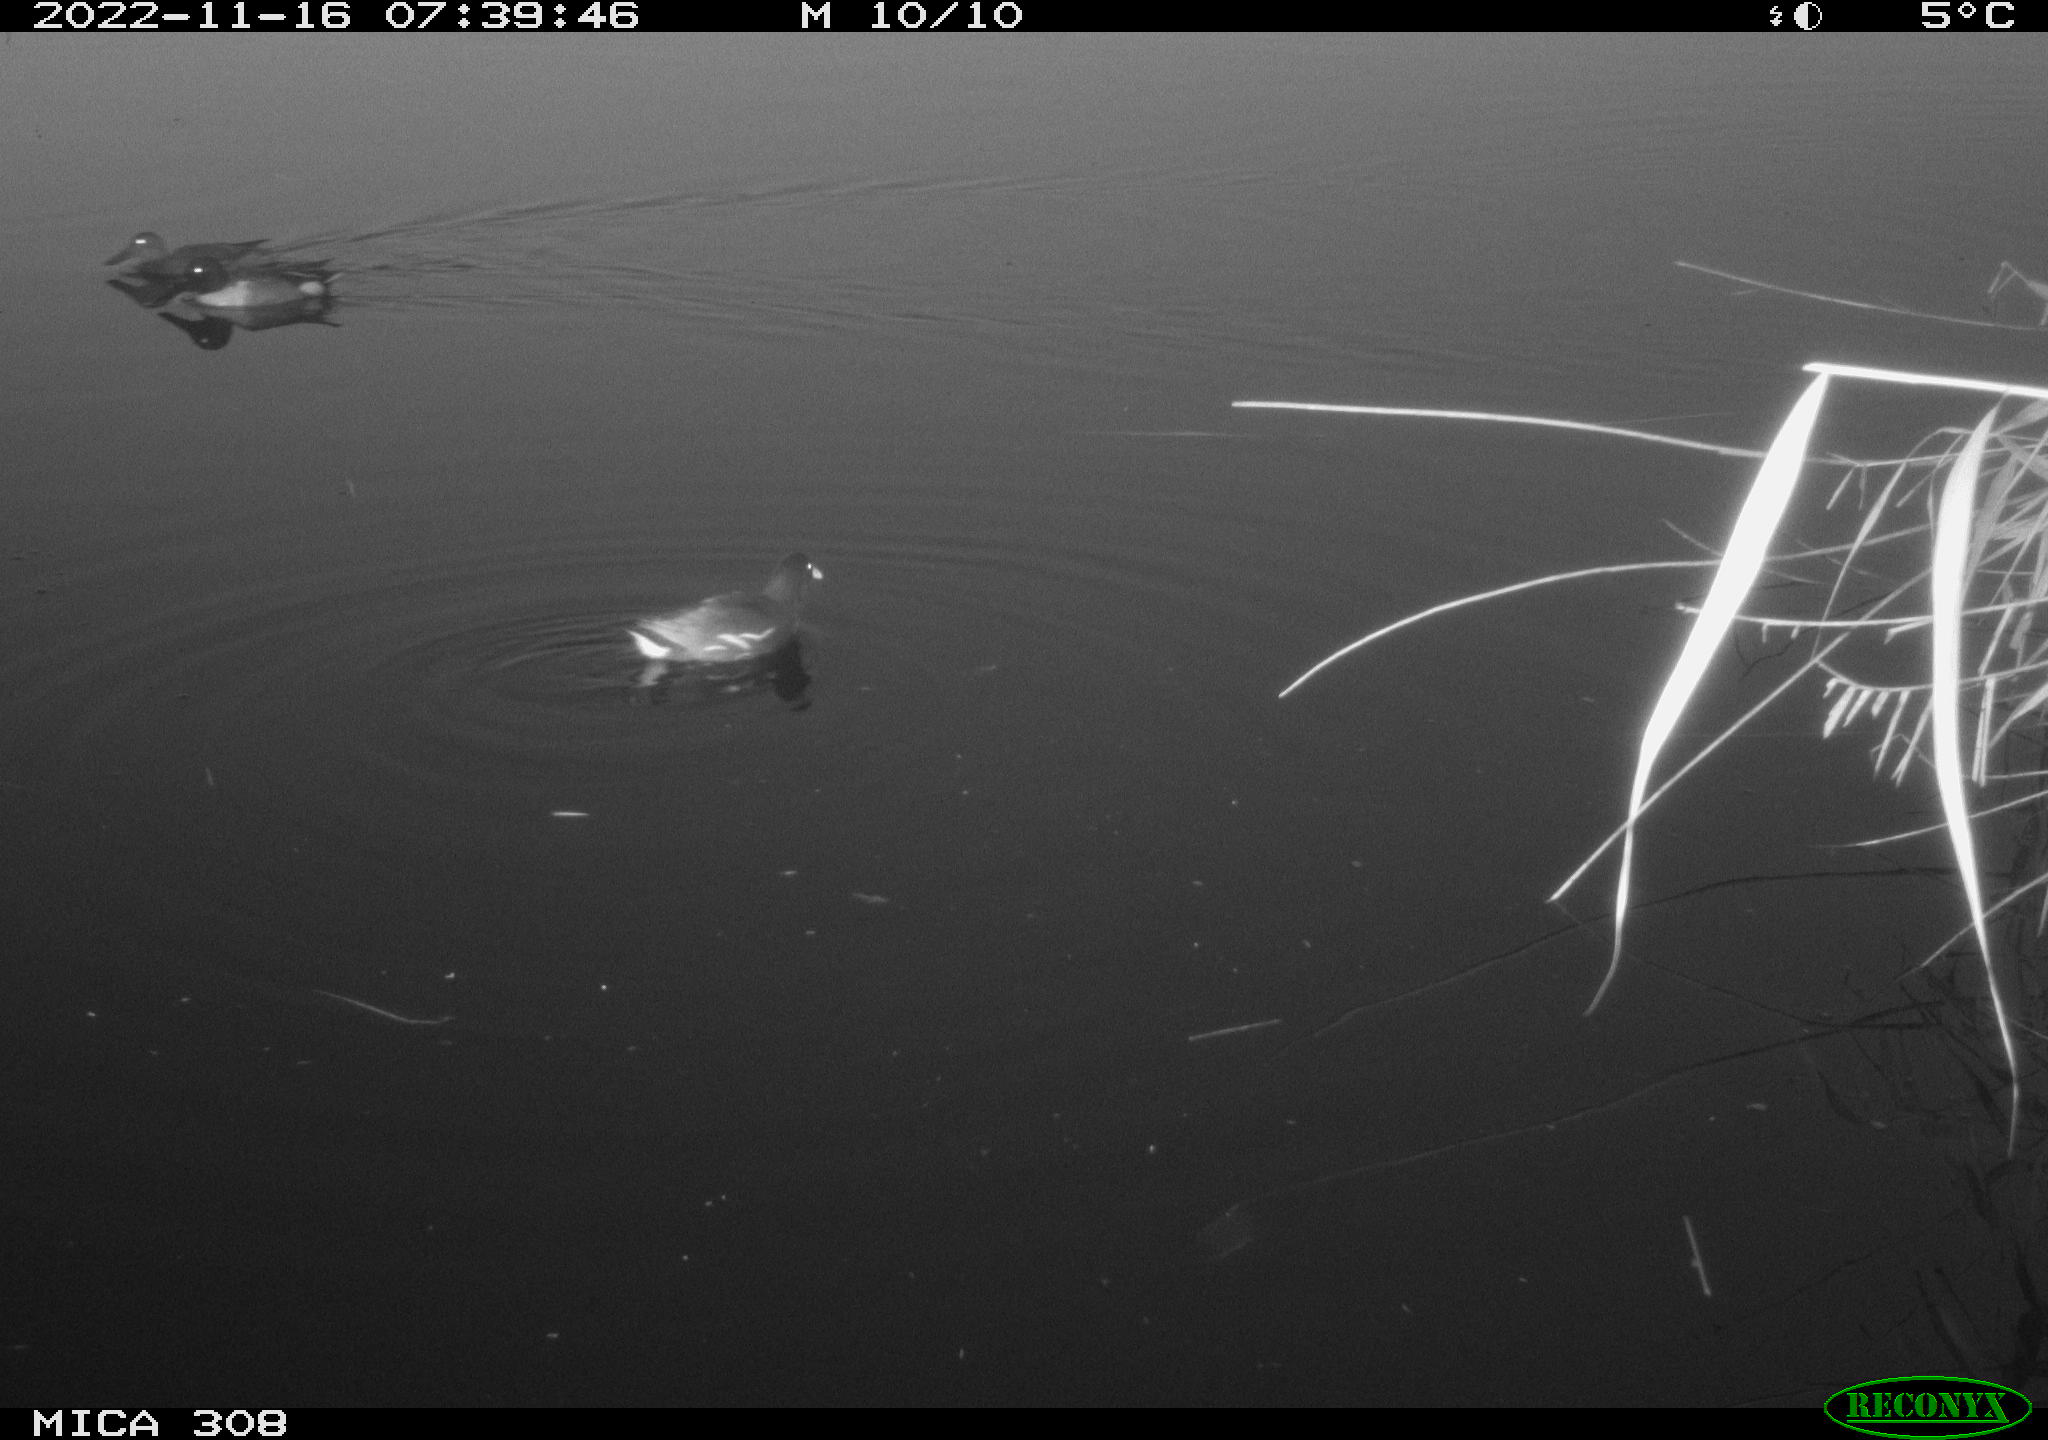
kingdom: Animalia
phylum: Chordata
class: Aves
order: Gruiformes
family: Rallidae
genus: Gallinula
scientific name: Gallinula chloropus
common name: Common moorhen
